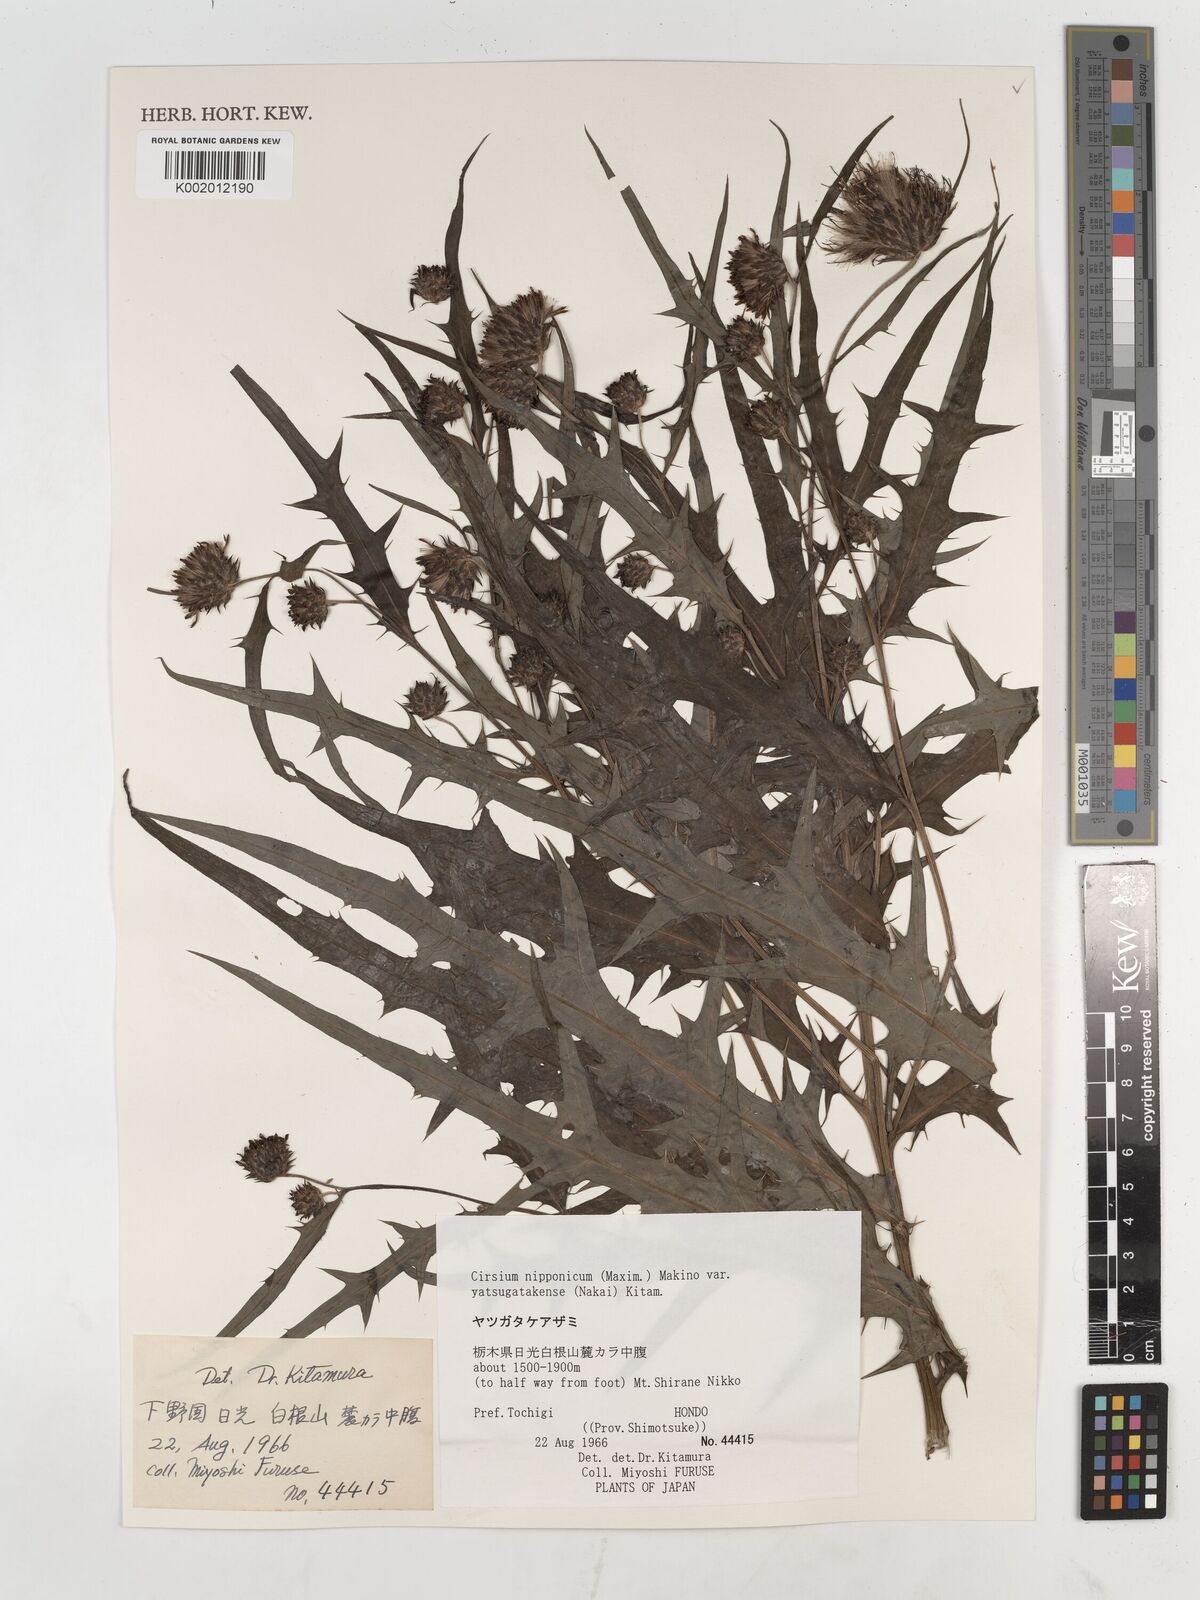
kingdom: Plantae
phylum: Tracheophyta
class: Magnoliopsida
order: Asterales
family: Asteraceae
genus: Cirsium
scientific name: Cirsium nipponicum
